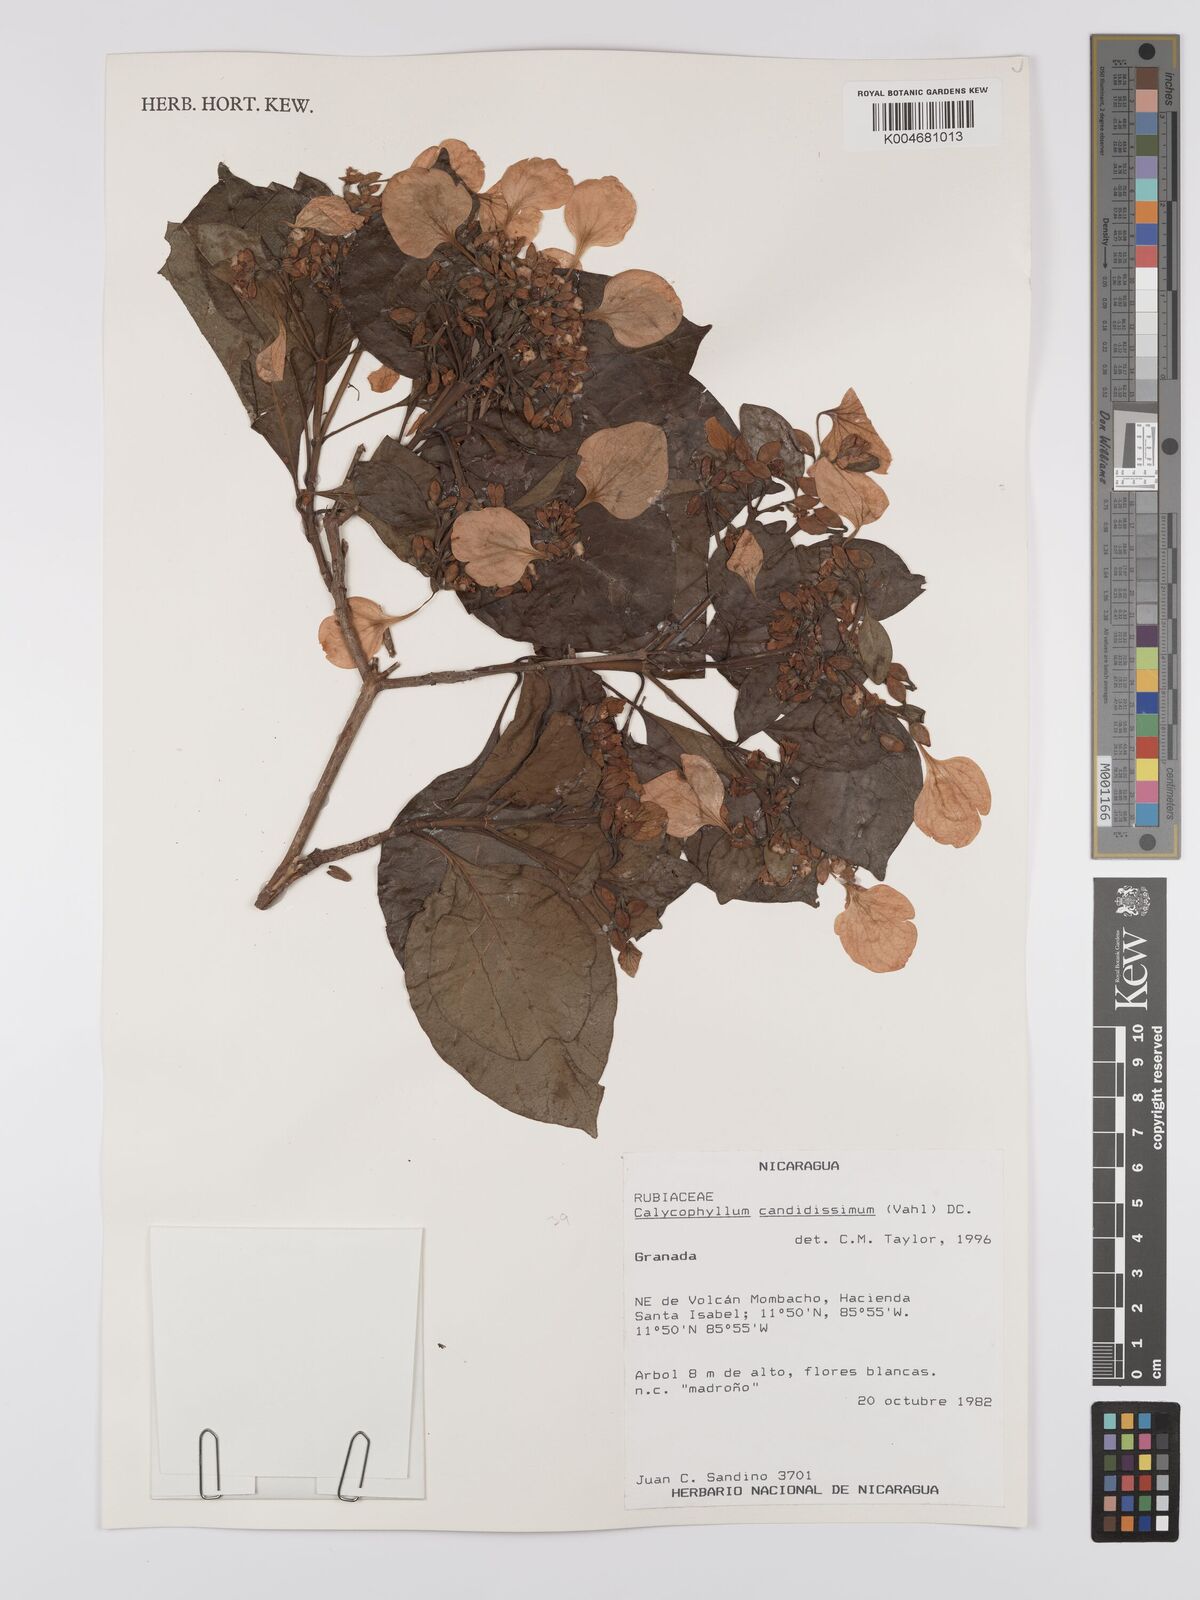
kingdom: Plantae
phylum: Tracheophyta
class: Magnoliopsida
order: Gentianales
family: Rubiaceae
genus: Calycophyllum
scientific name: Calycophyllum candidissimum
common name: Dagame
